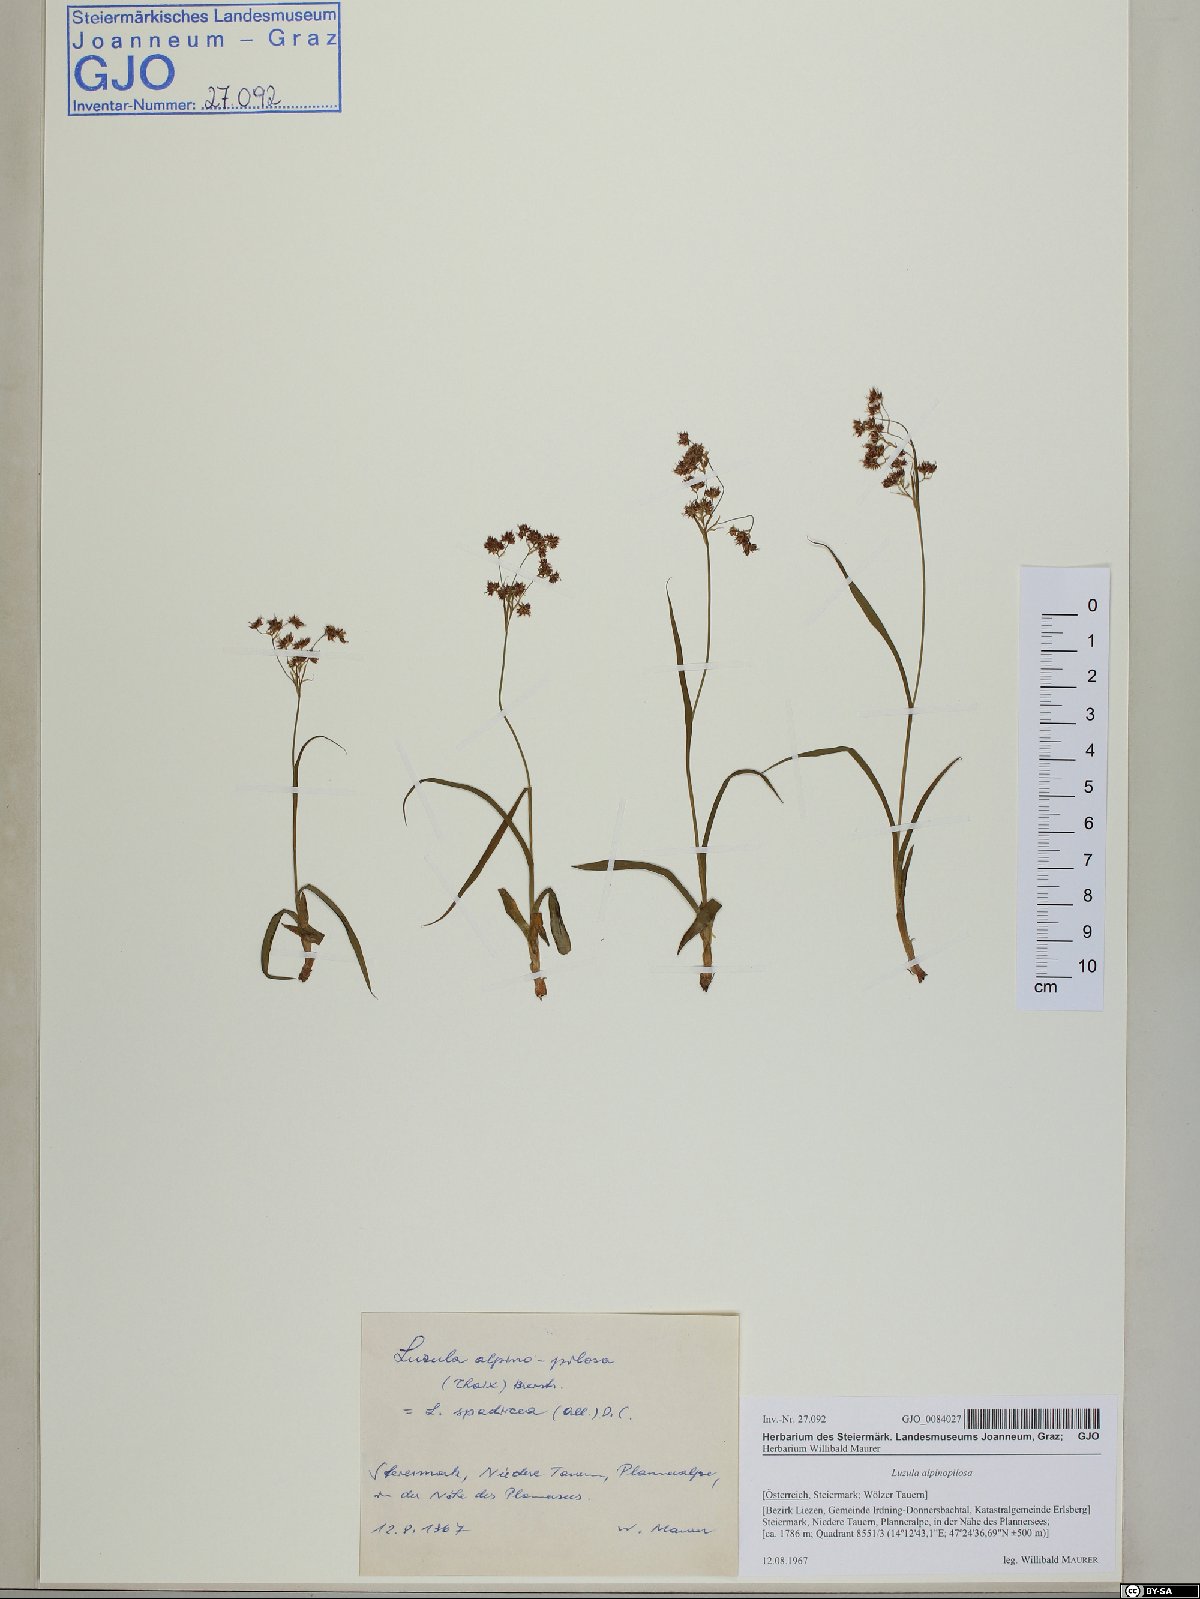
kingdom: Plantae
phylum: Tracheophyta
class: Liliopsida
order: Poales
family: Juncaceae
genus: Luzula
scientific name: Luzula alpinopilosa
